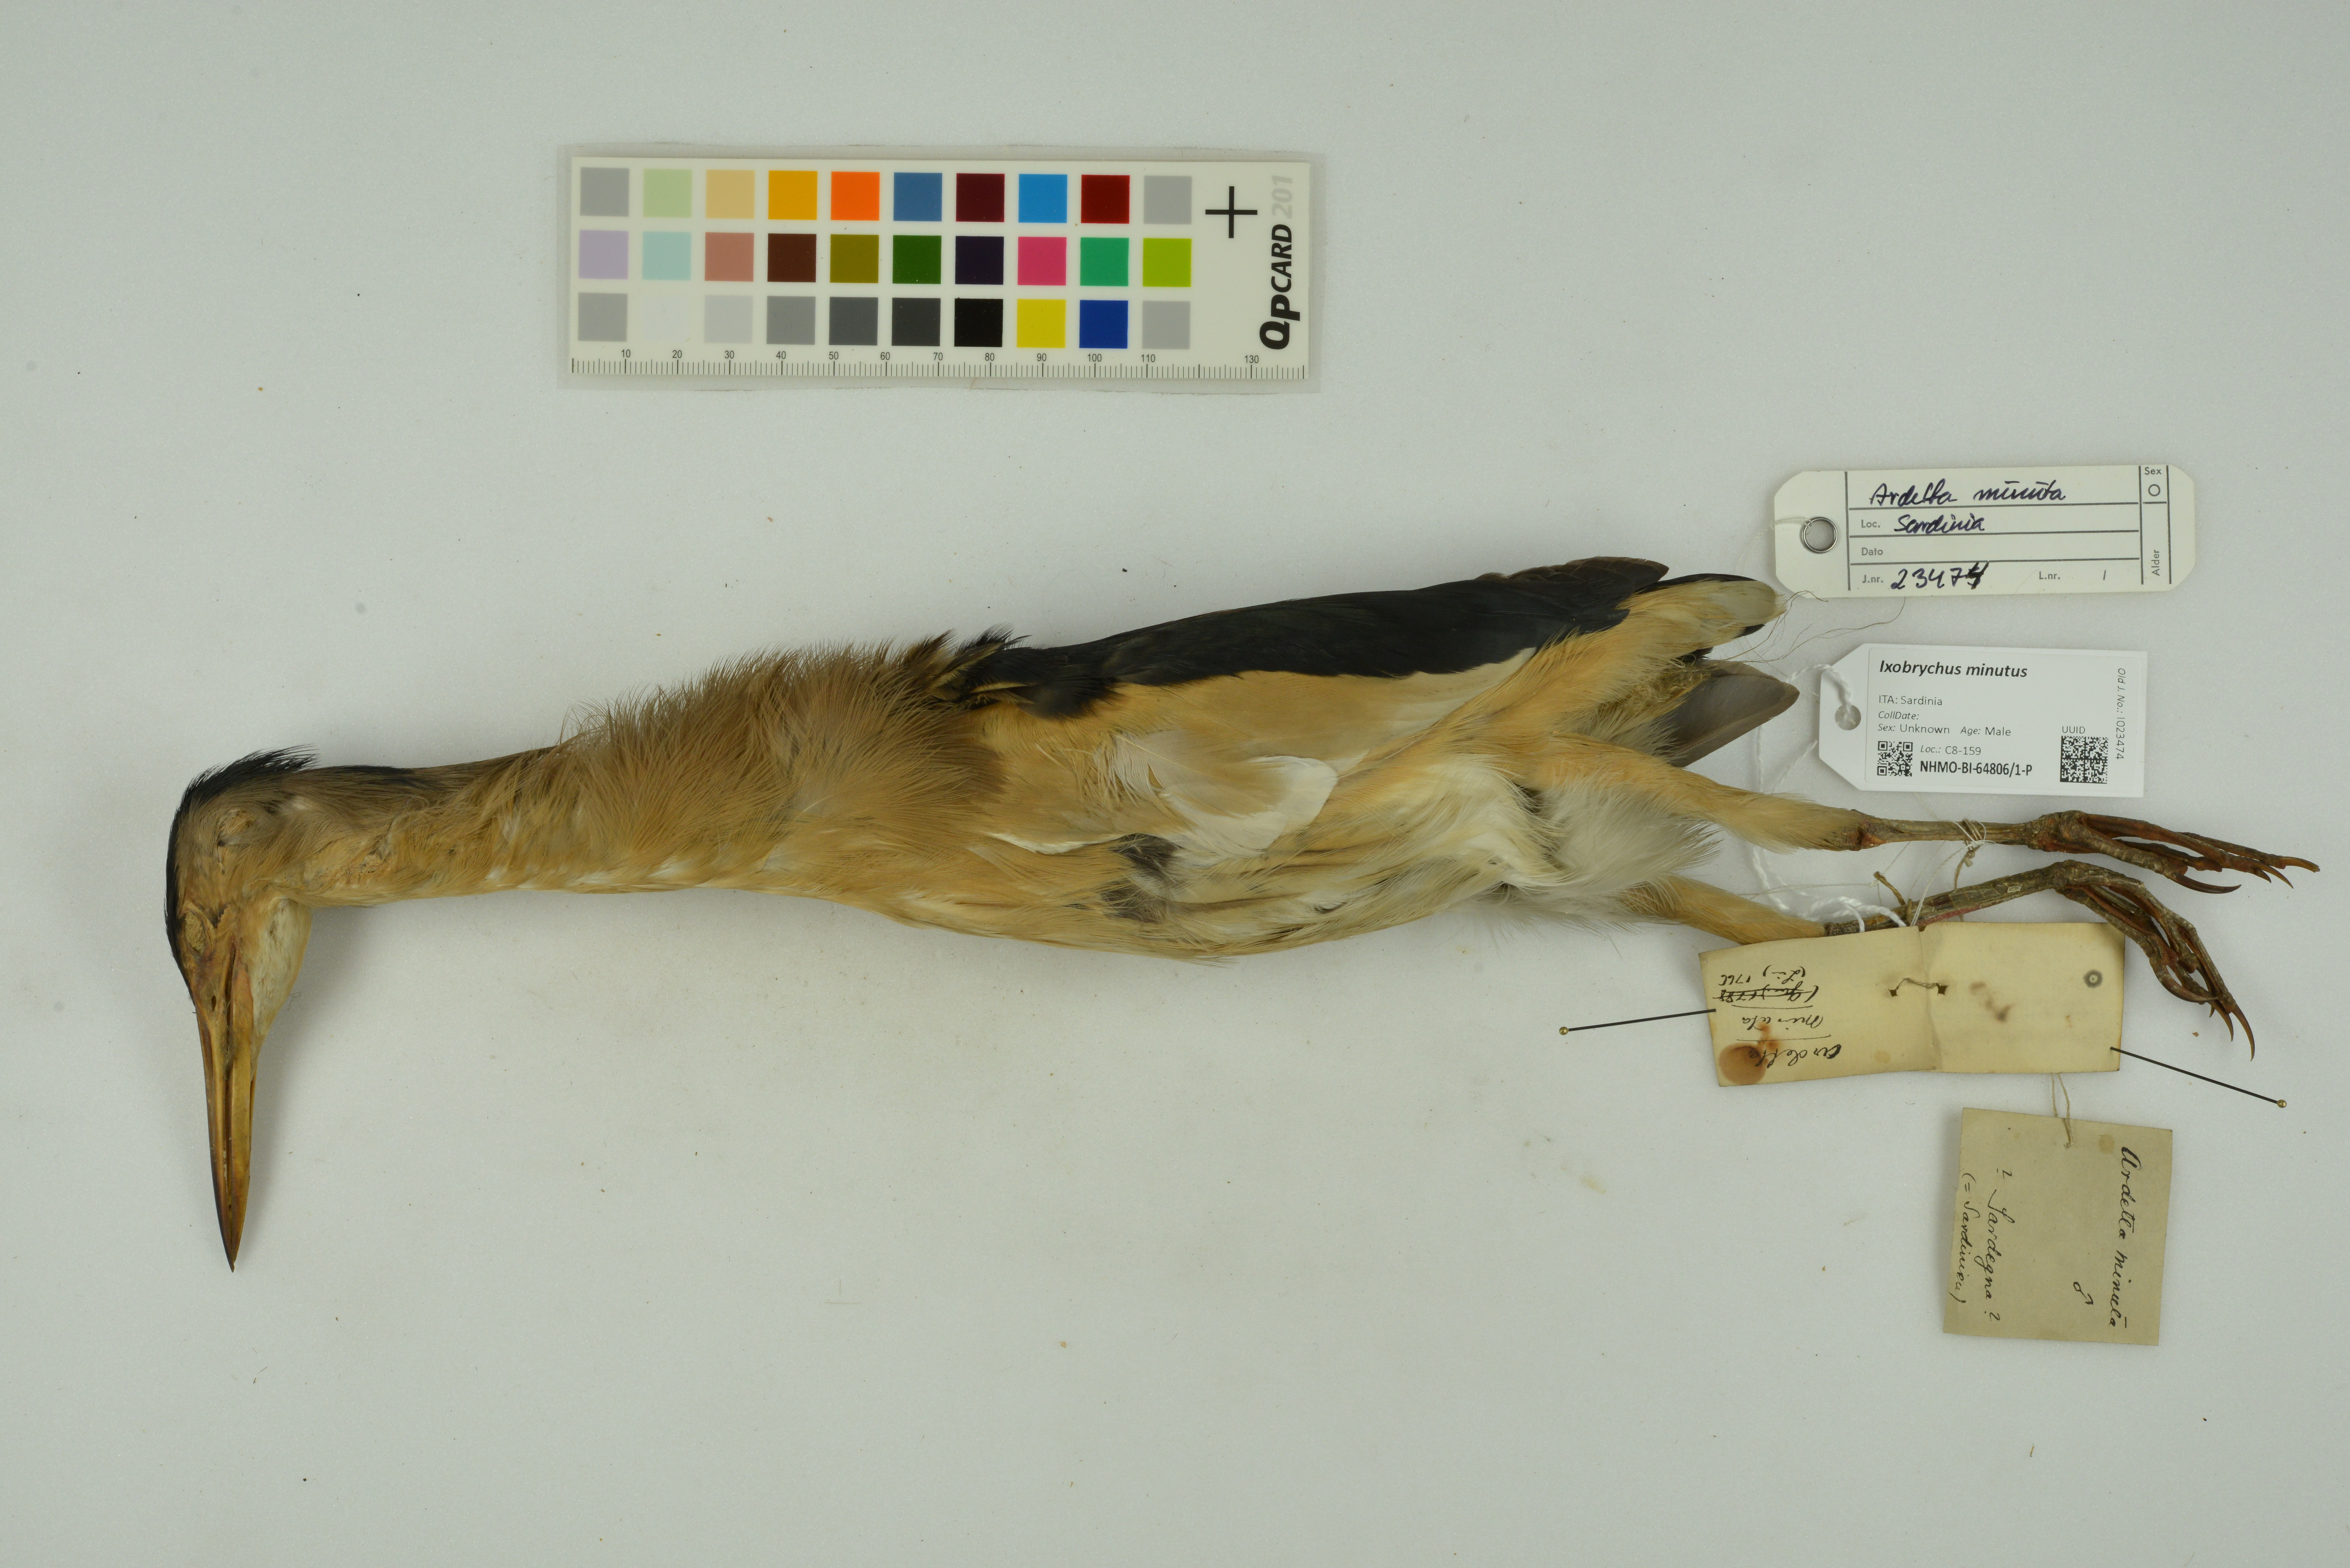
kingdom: Animalia
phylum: Chordata
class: Aves
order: Pelecaniformes
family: Ardeidae
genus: Ixobrychus
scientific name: Ixobrychus minutus
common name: Little bittern
